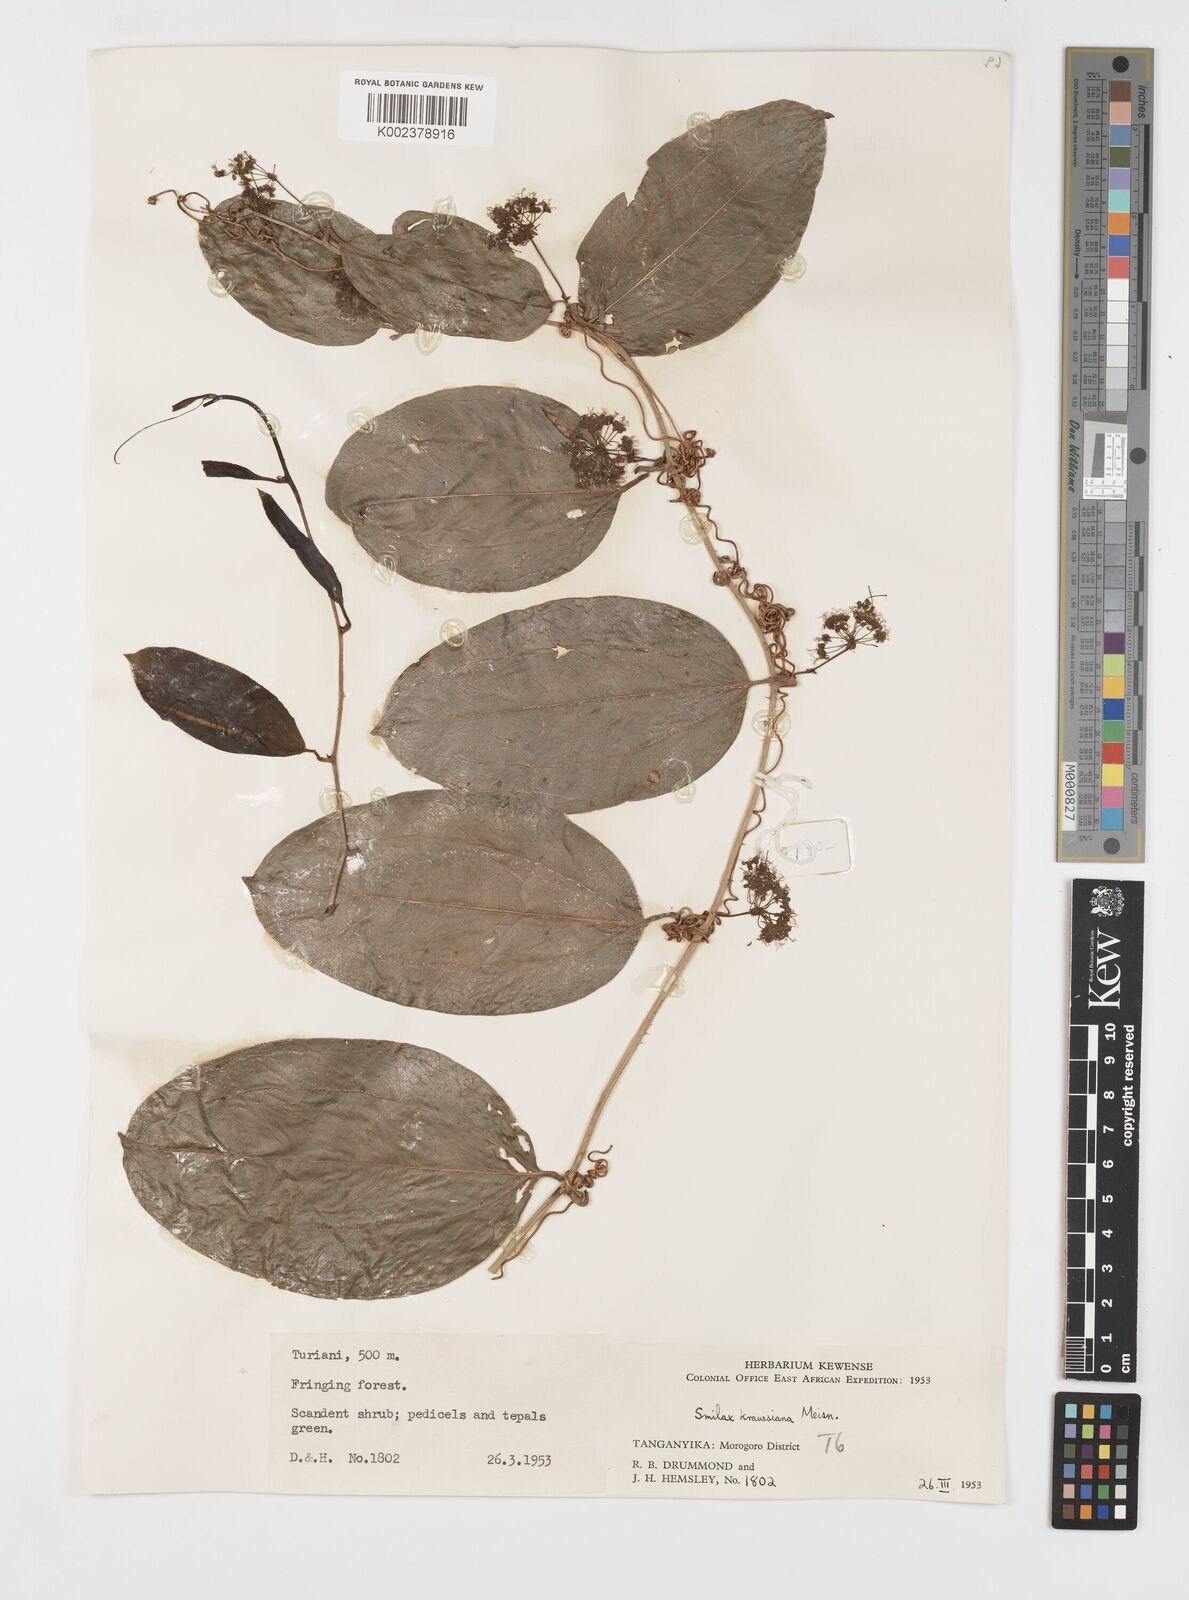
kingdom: Plantae
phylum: Tracheophyta
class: Liliopsida
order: Liliales
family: Smilacaceae
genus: Smilax
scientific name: Smilax anceps
